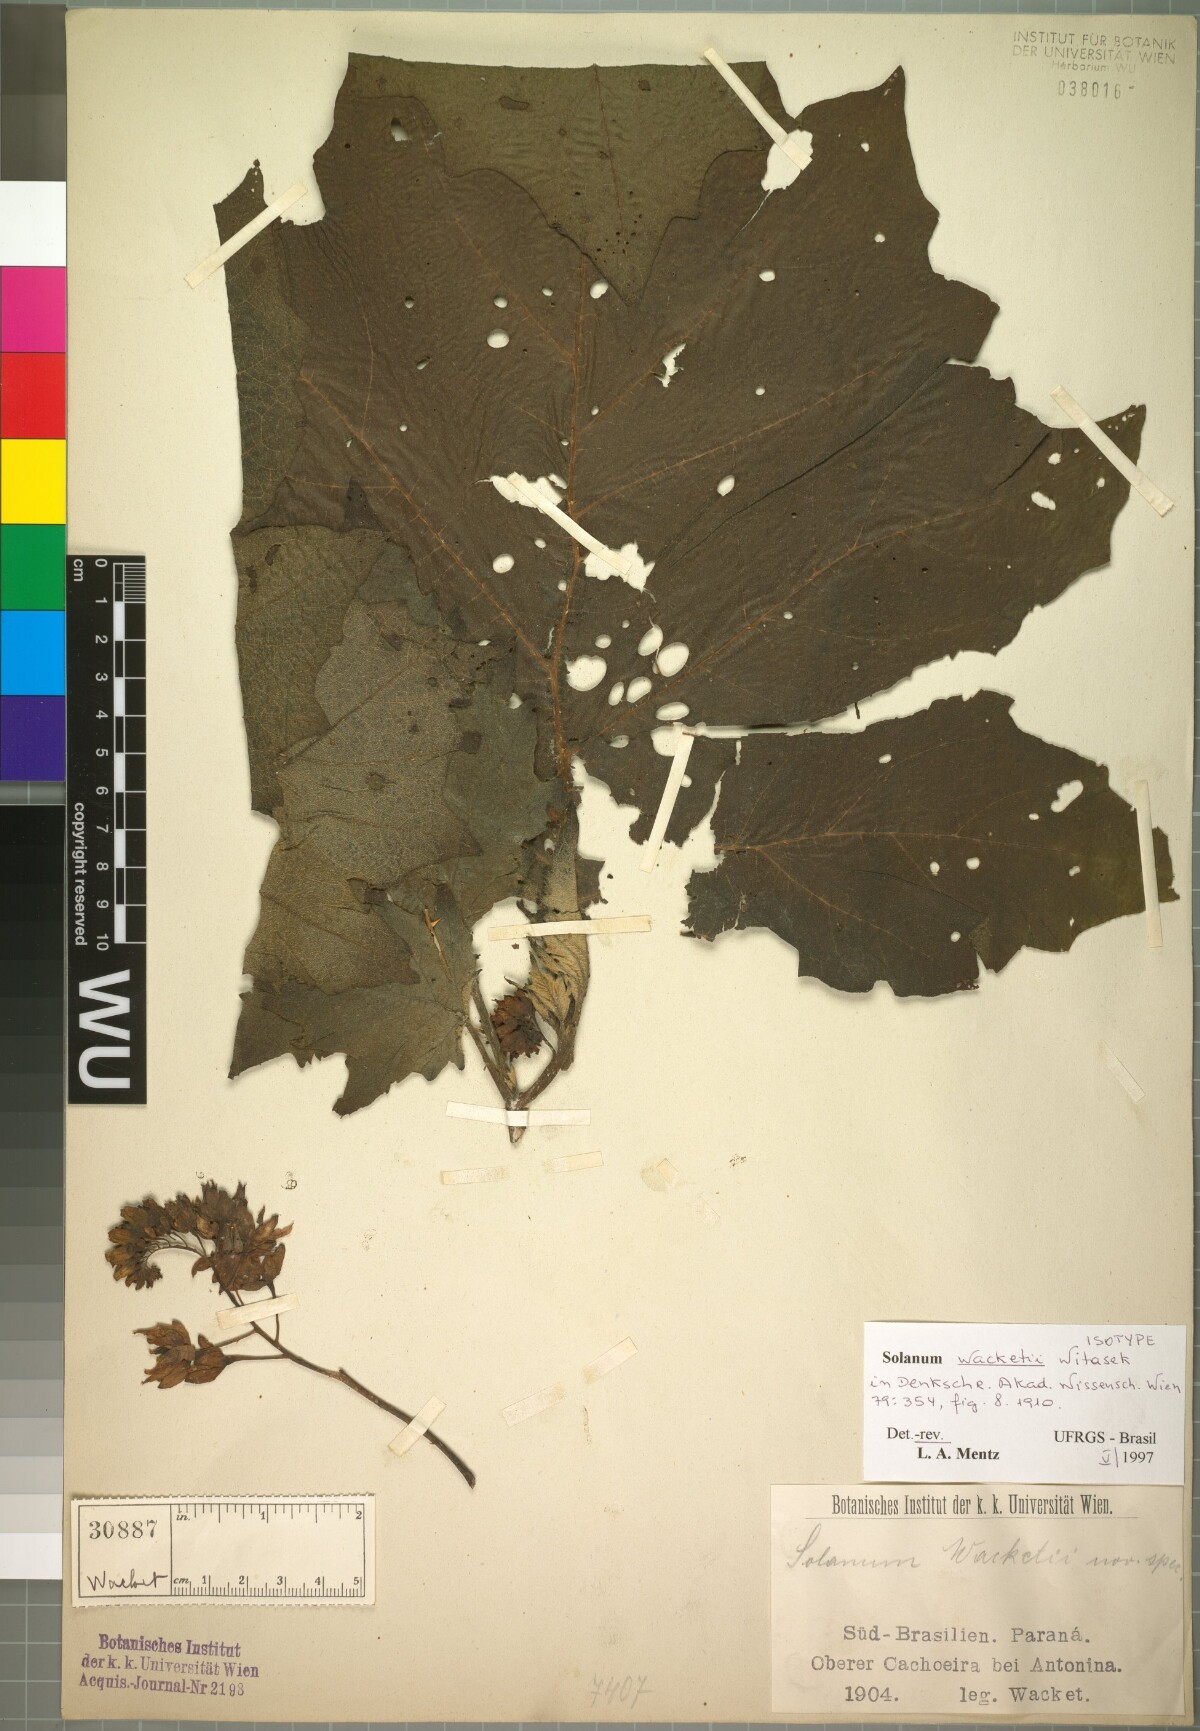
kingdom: Plantae
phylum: Tracheophyta
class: Magnoliopsida
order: Solanales
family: Solanaceae
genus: Solanum
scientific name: Solanum wacketii
